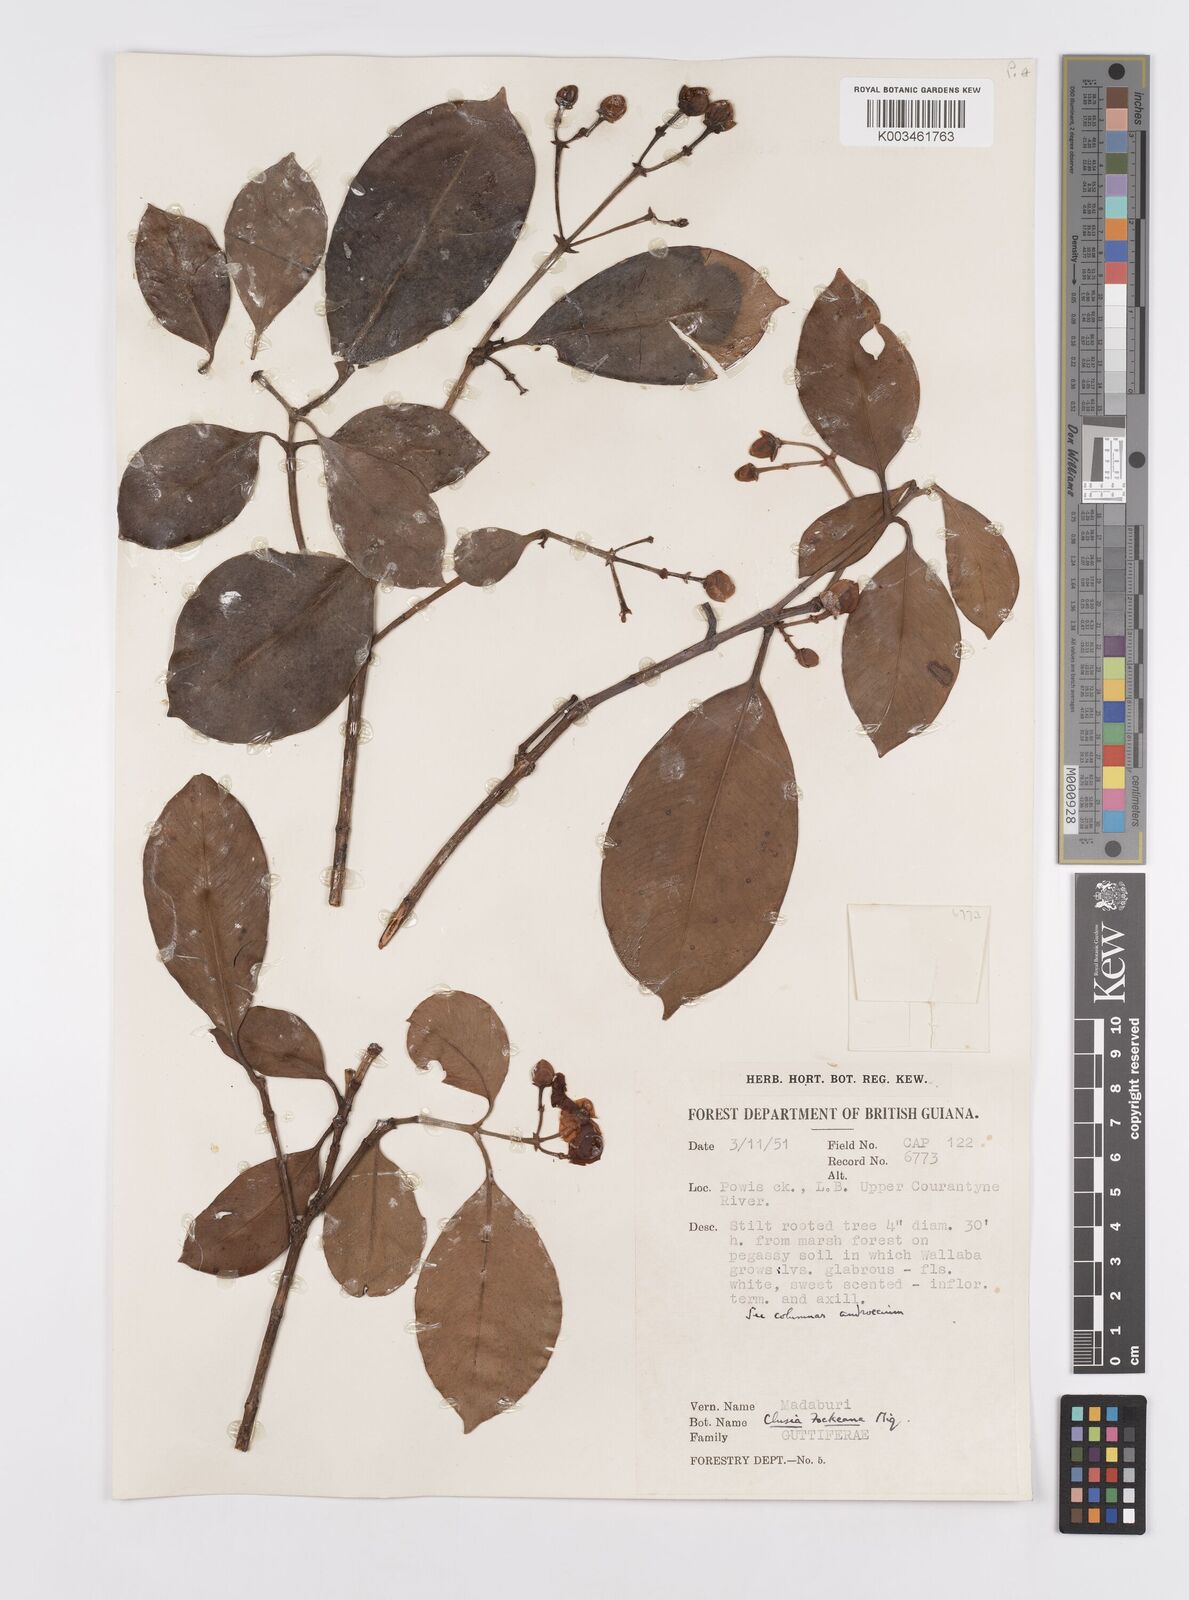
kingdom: Plantae
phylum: Tracheophyta
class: Magnoliopsida
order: Malpighiales
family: Clusiaceae
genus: Clusia
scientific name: Clusia fockeana
